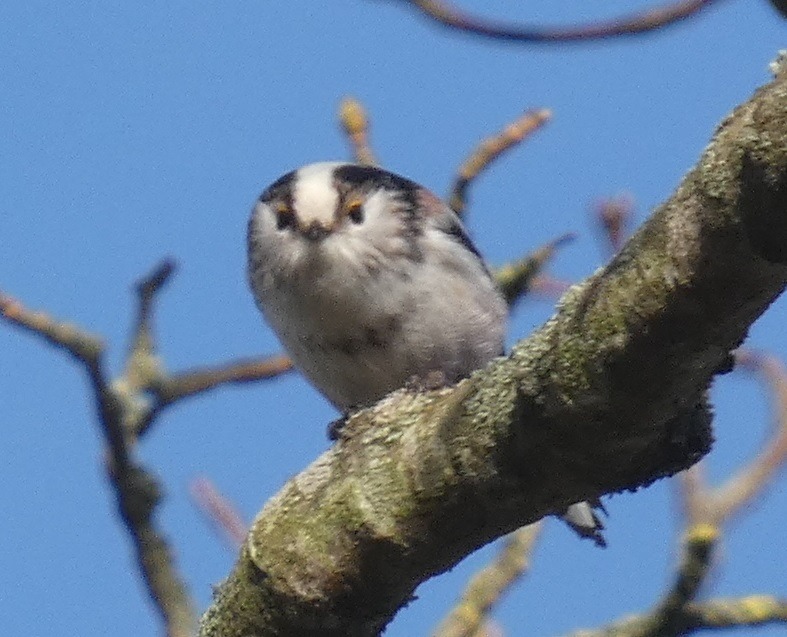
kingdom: Animalia
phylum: Chordata
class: Aves
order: Passeriformes
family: Aegithalidae
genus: Aegithalos
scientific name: Aegithalos caudatus
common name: Halemejse
